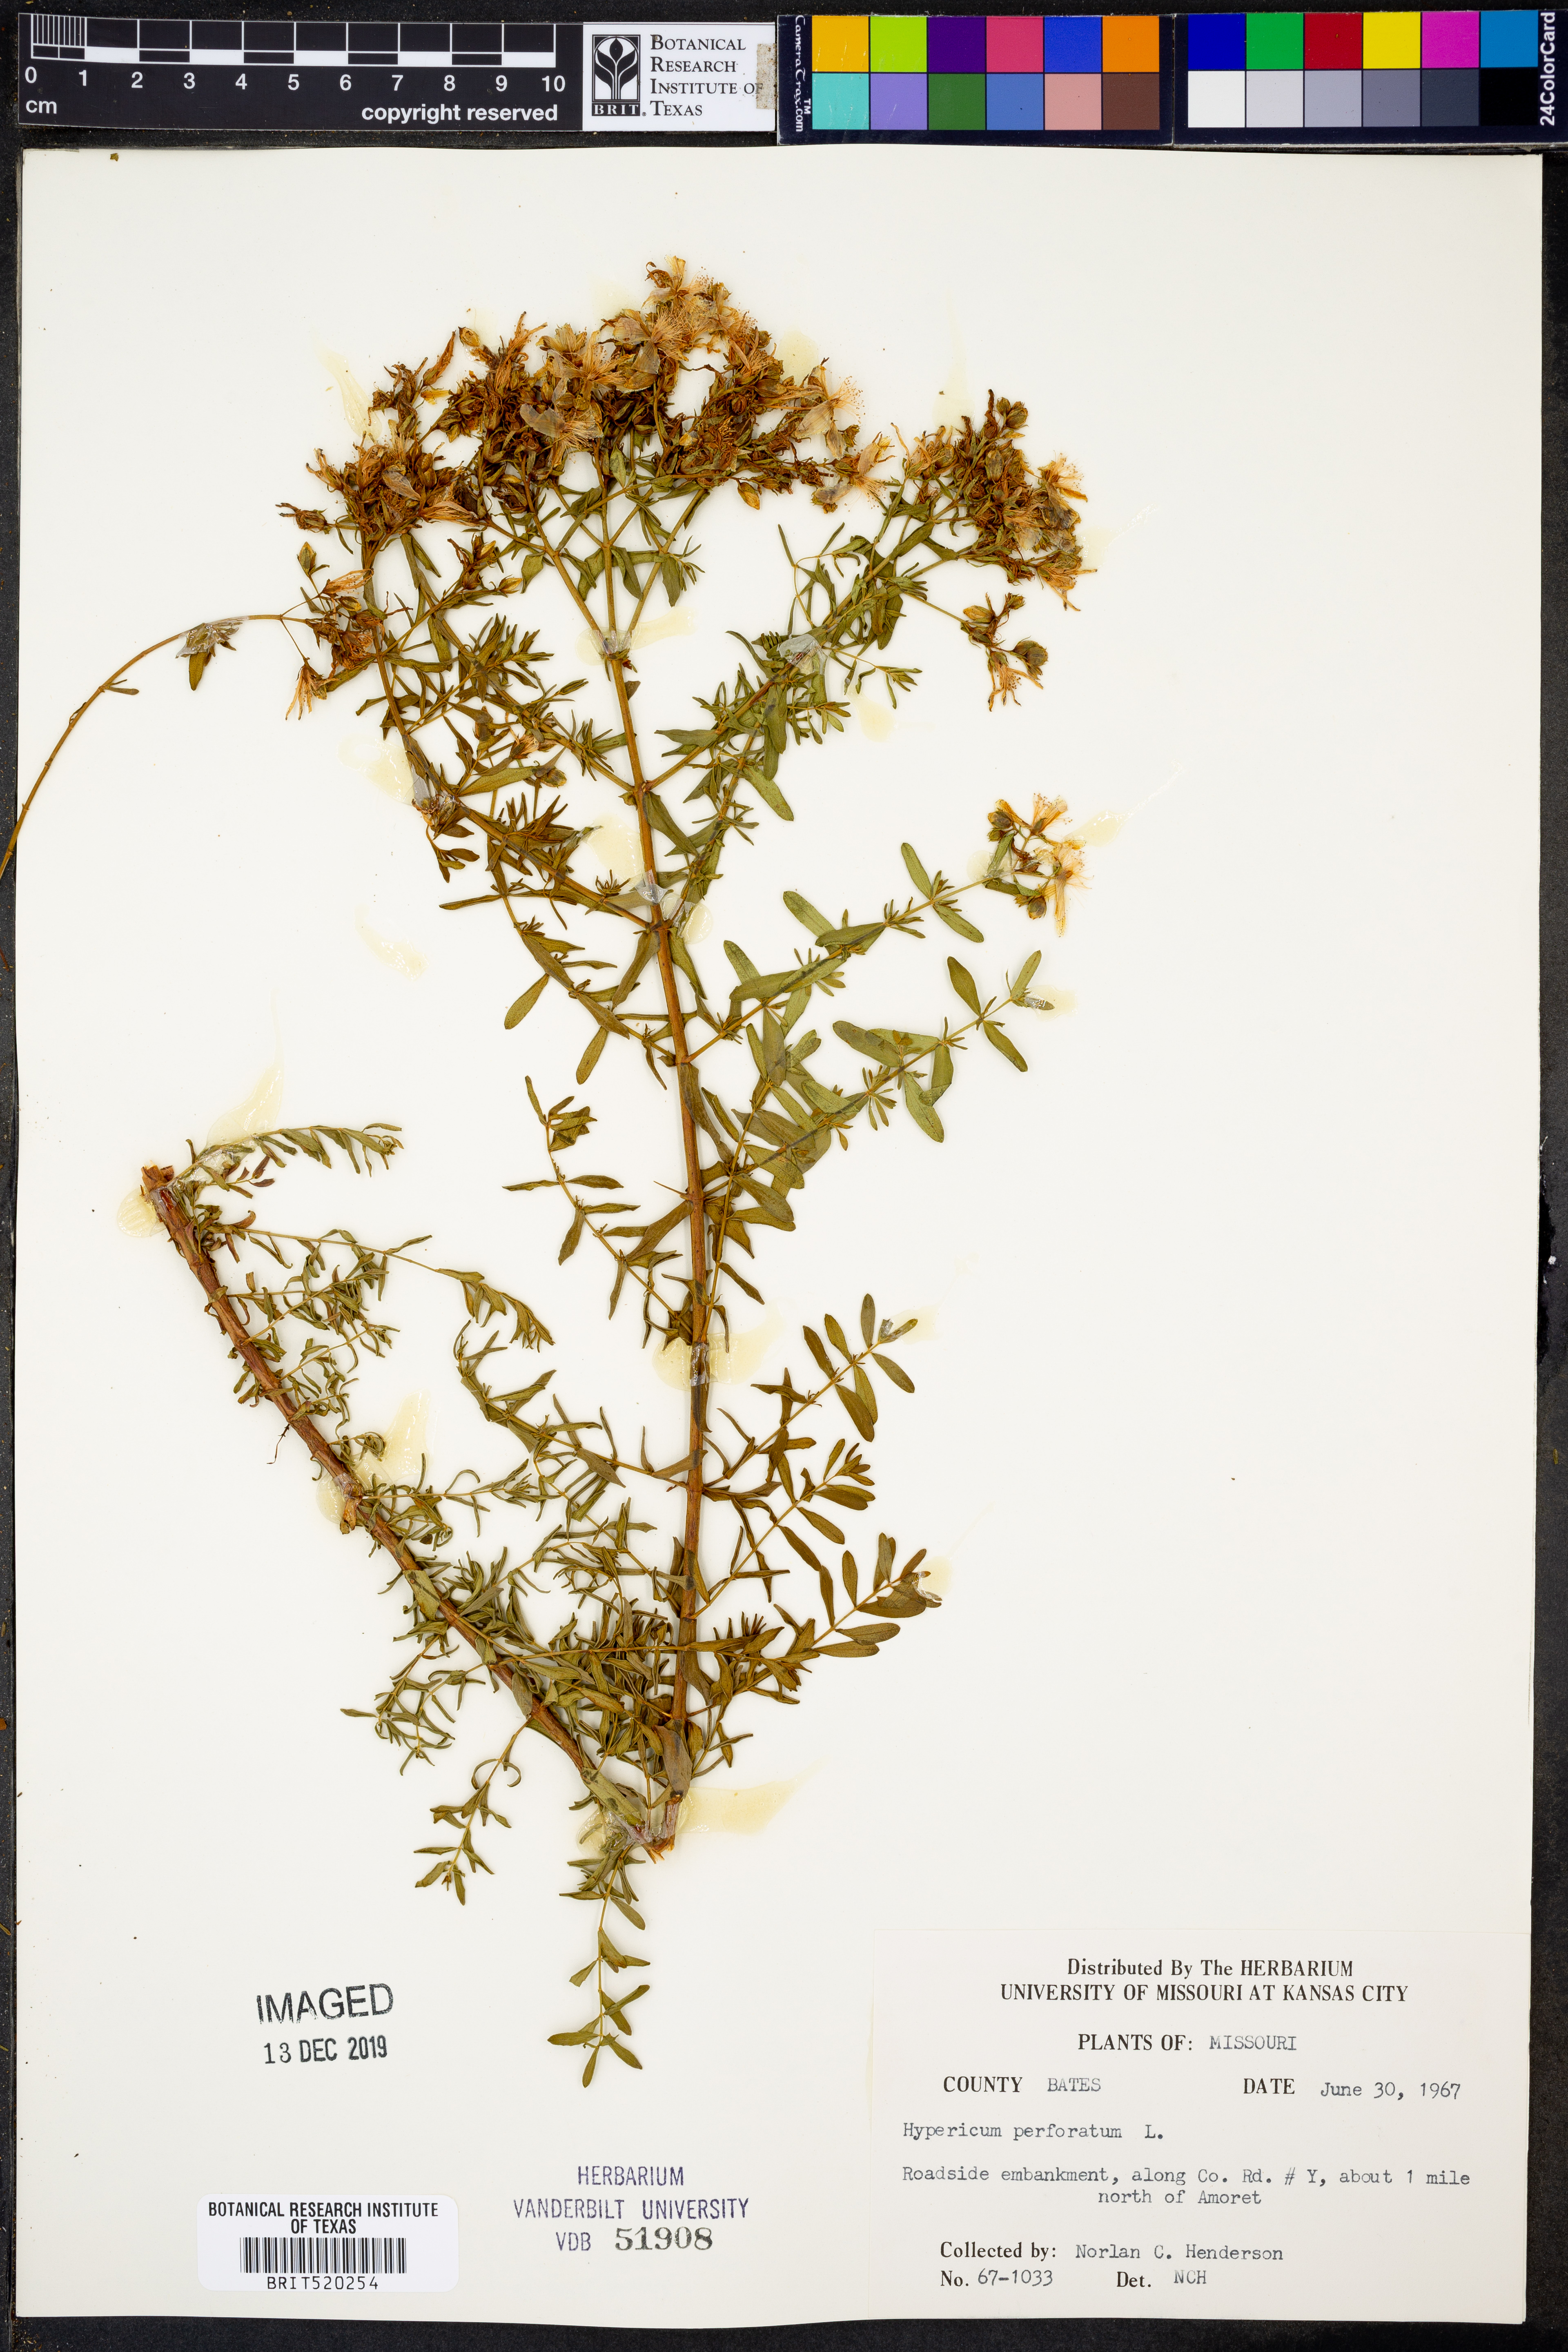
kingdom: Plantae
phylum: Tracheophyta
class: Magnoliopsida
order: Malpighiales
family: Hypericaceae
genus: Hypericum
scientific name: Hypericum perforatum
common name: Common st. johnswort
